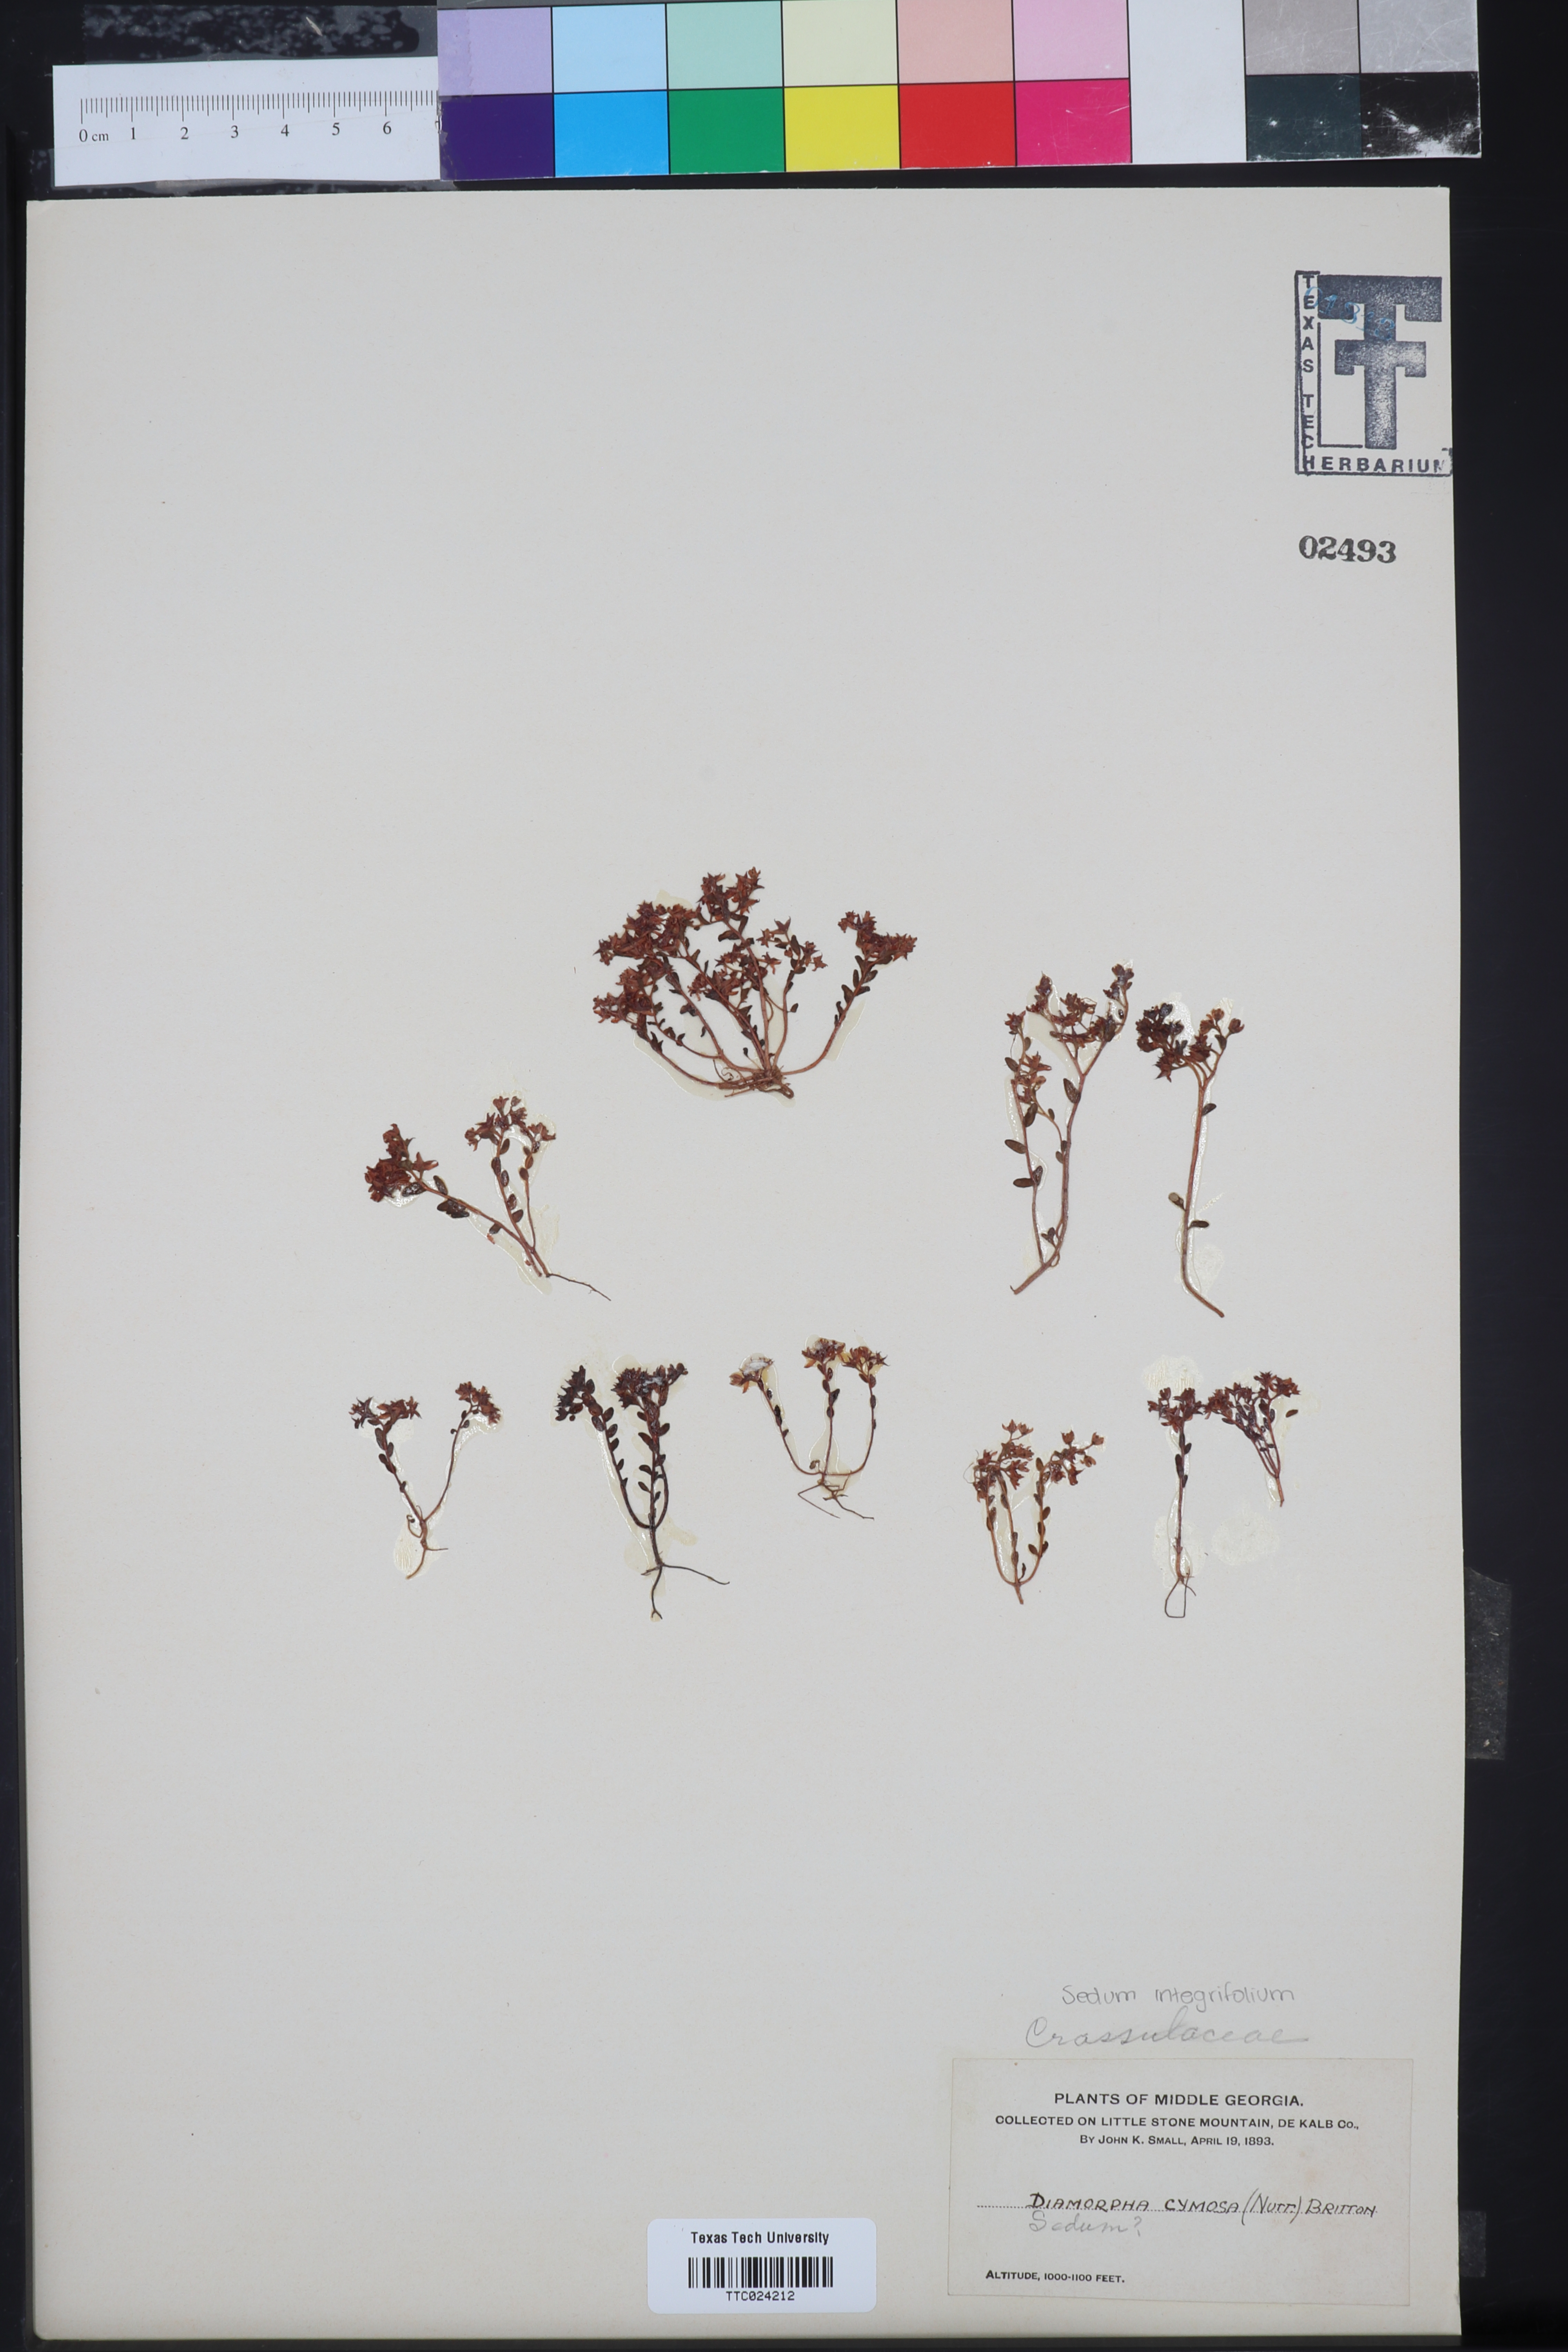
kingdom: Plantae
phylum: Tracheophyta
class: Magnoliopsida
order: Saxifragales
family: Crassulaceae
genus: Rhodiola
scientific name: Rhodiola integrifolia
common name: Western roseroot
